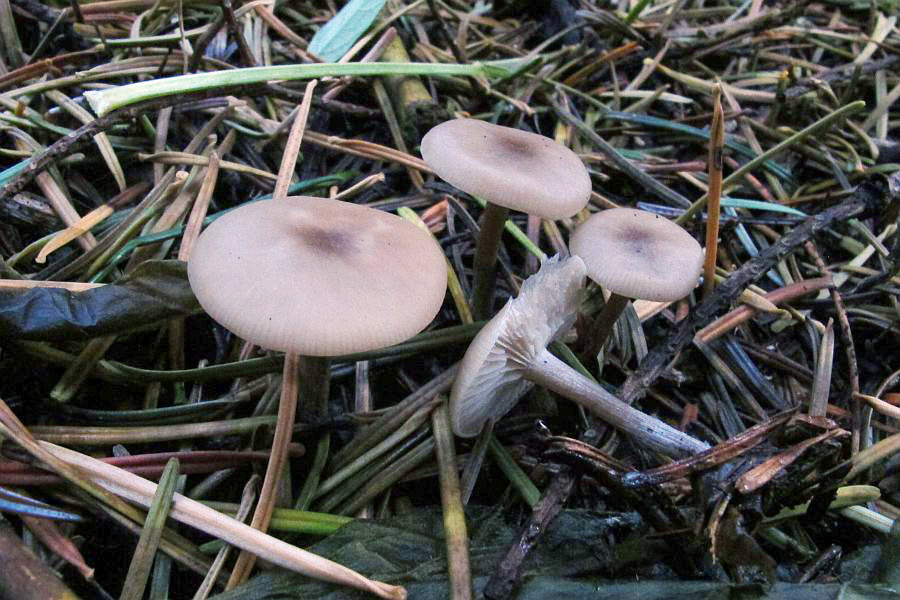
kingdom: Fungi
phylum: Basidiomycota
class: Agaricomycetes
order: Agaricales
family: Tricholomataceae
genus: Lepista
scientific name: Lepista metachroides
